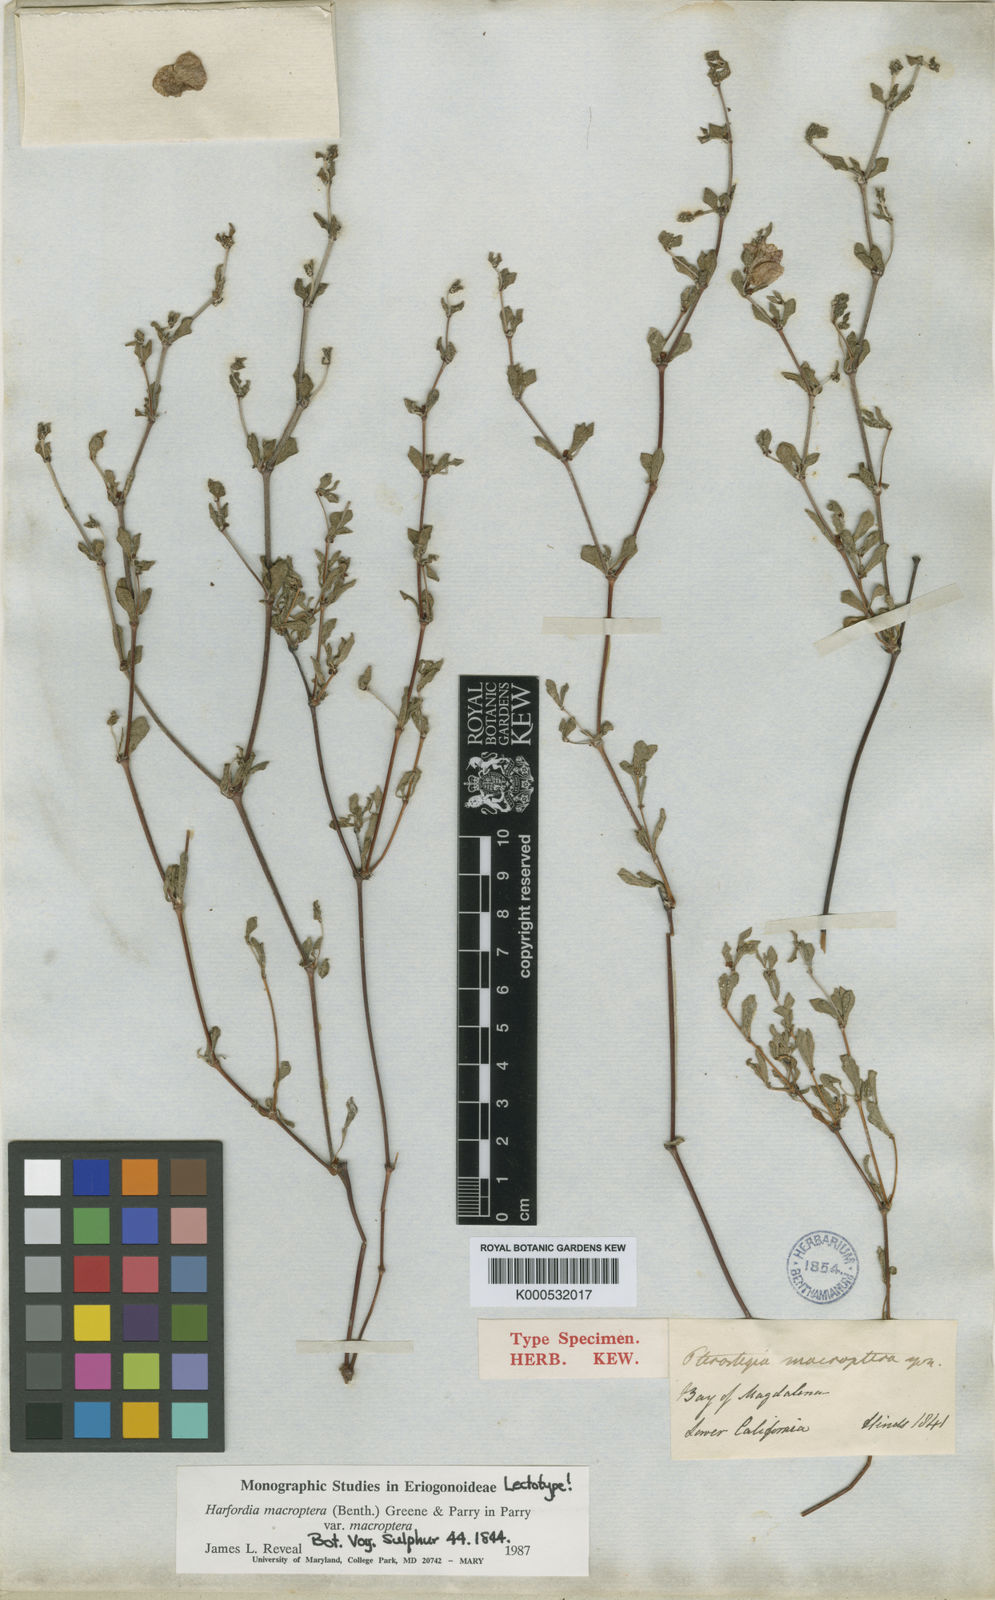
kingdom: Plantae
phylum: Tracheophyta
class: Magnoliopsida
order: Caryophyllales
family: Polygonaceae
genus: Harfordia
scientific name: Harfordia macroptera
